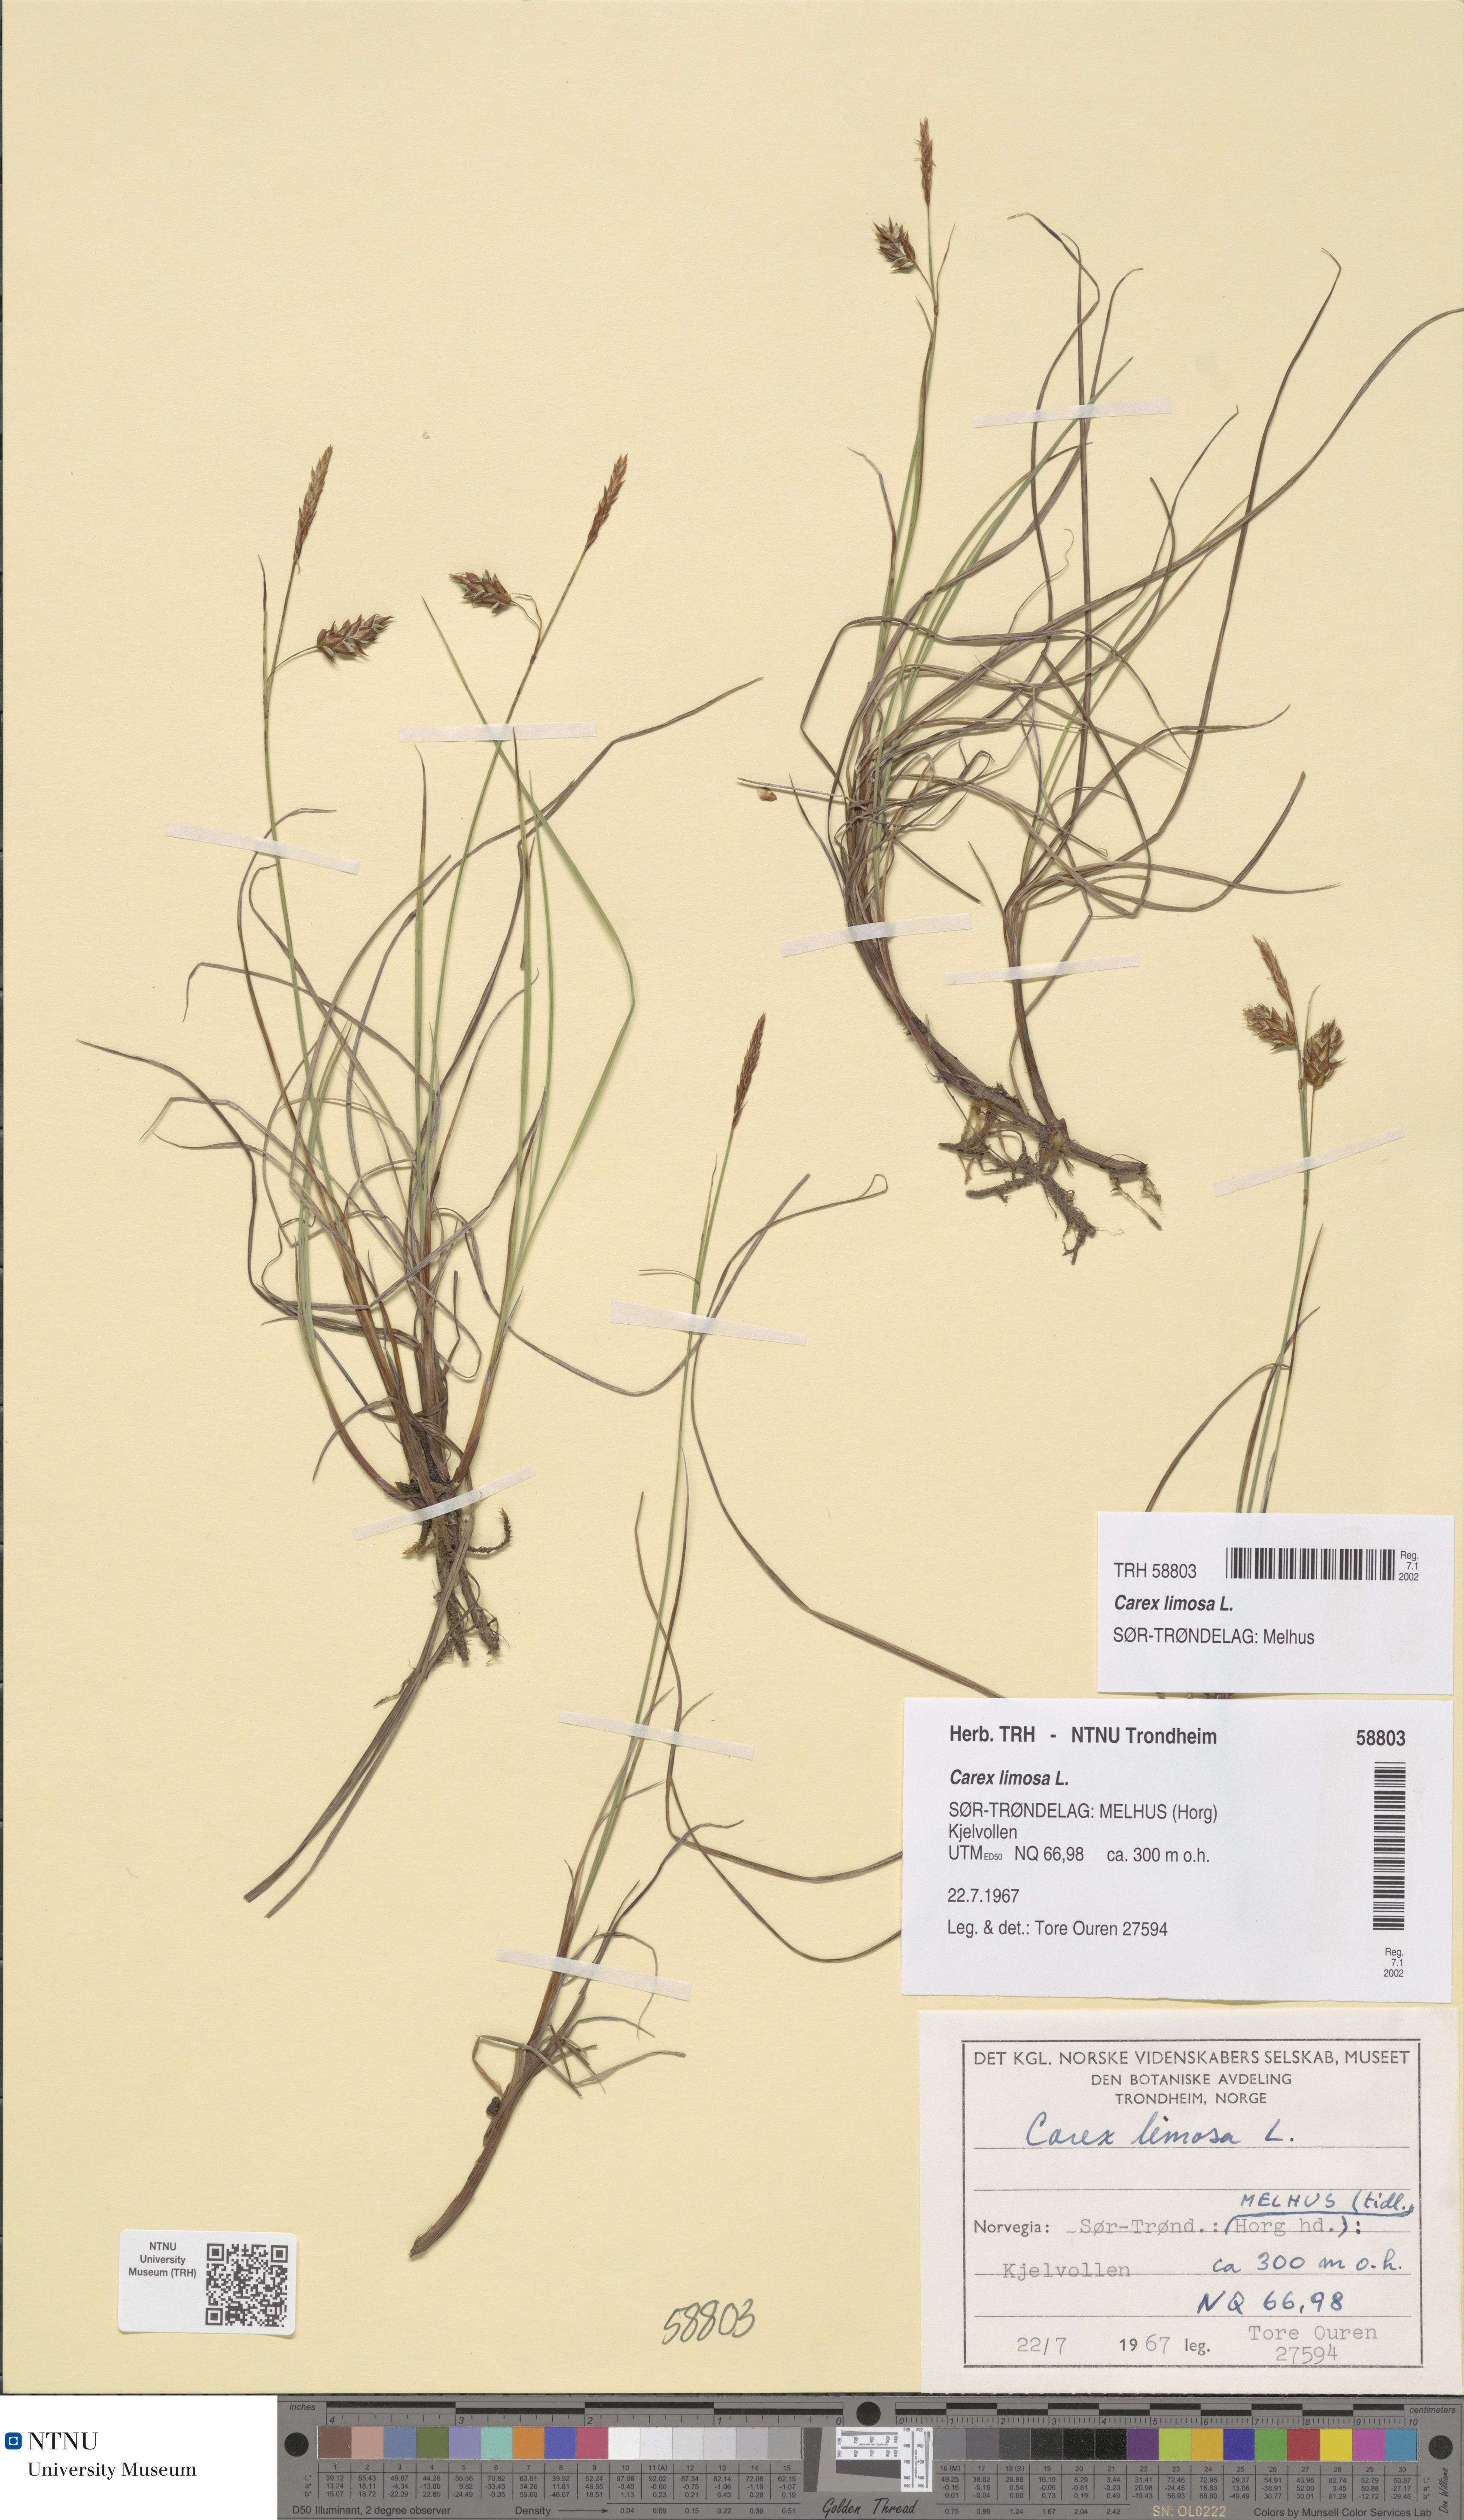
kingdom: Plantae
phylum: Tracheophyta
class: Liliopsida
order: Poales
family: Cyperaceae
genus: Carex
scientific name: Carex limosa
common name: Bog sedge
